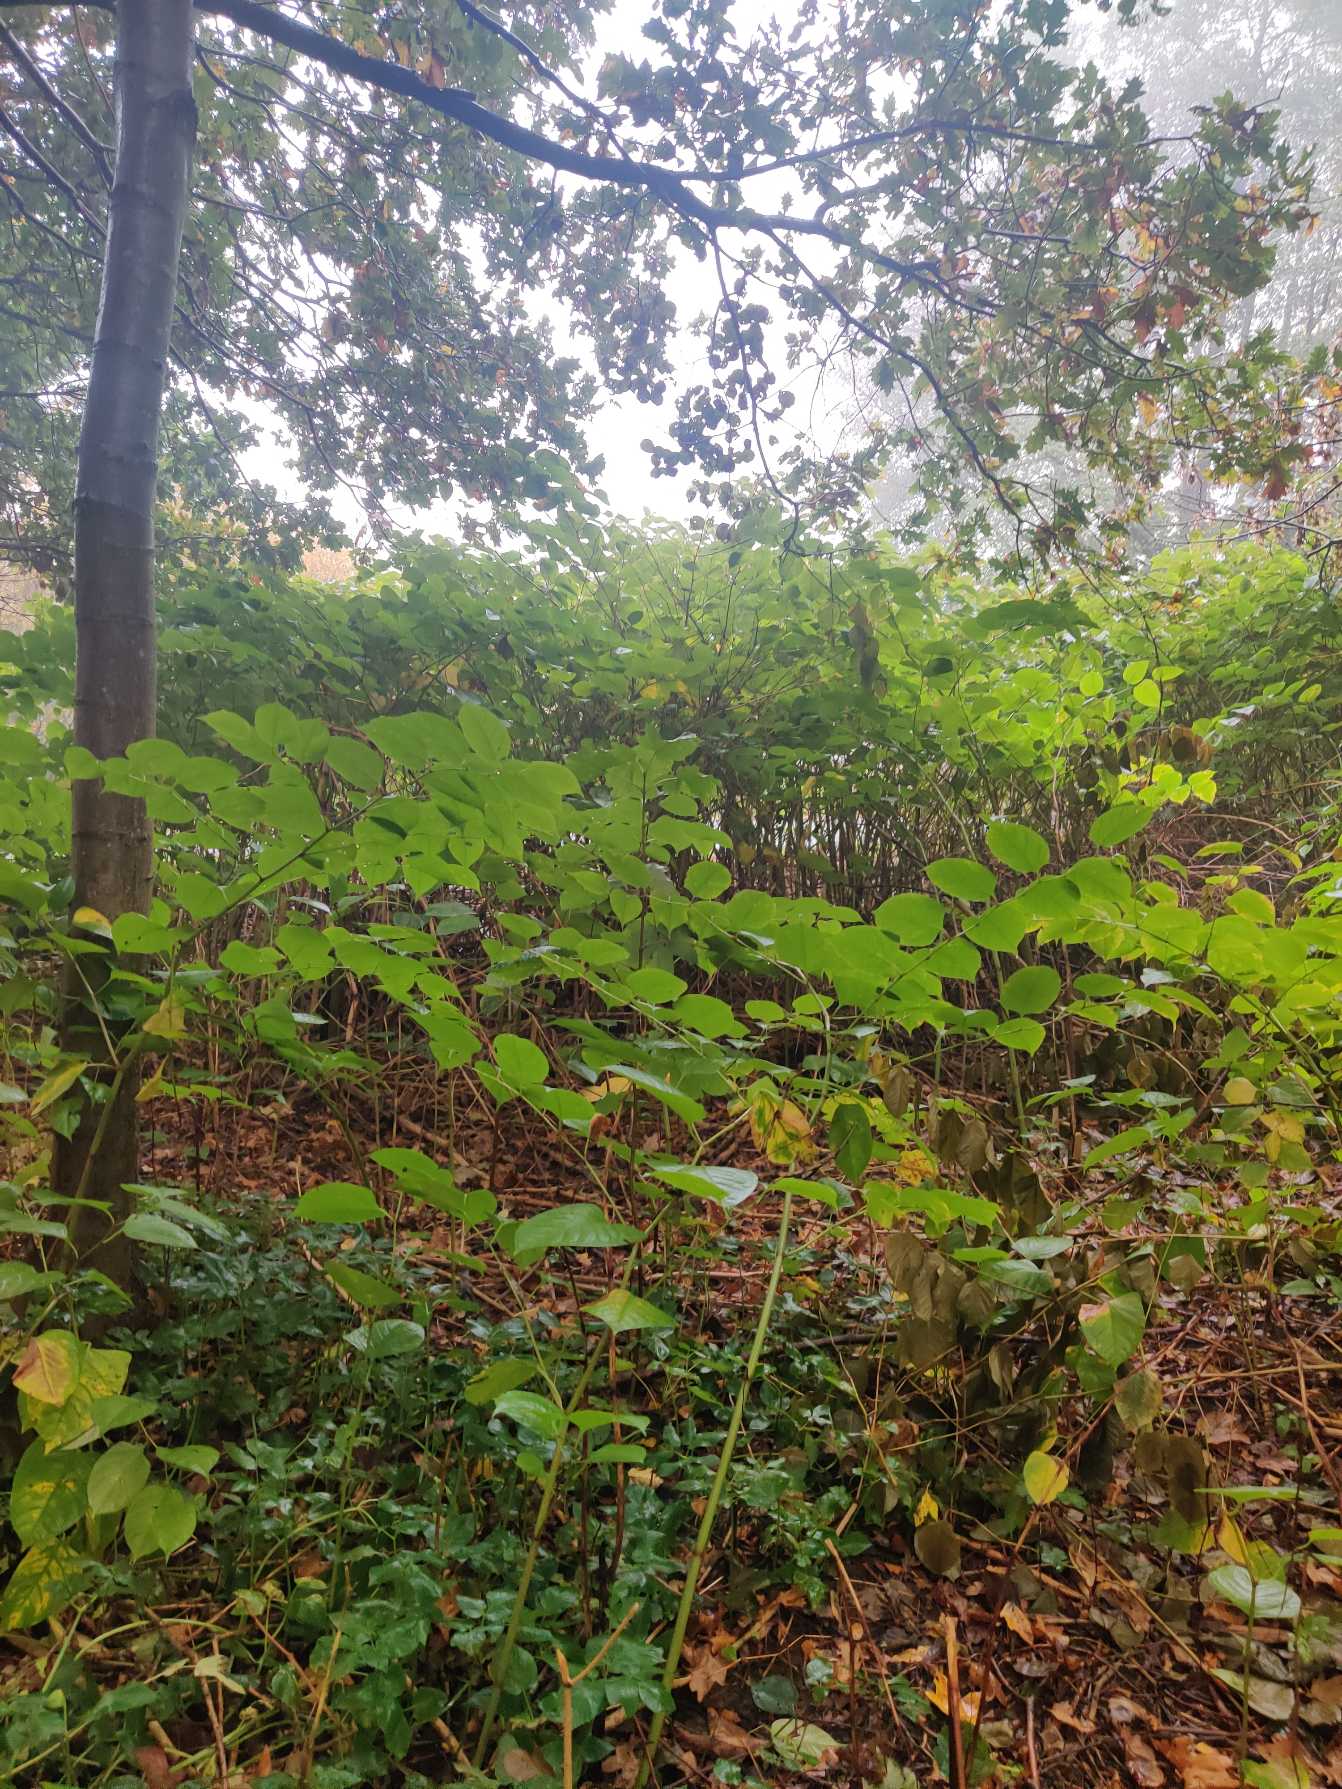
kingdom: Plantae
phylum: Tracheophyta
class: Magnoliopsida
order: Caryophyllales
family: Polygonaceae
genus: Reynoutria
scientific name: Reynoutria japonica
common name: Japan-pileurt
